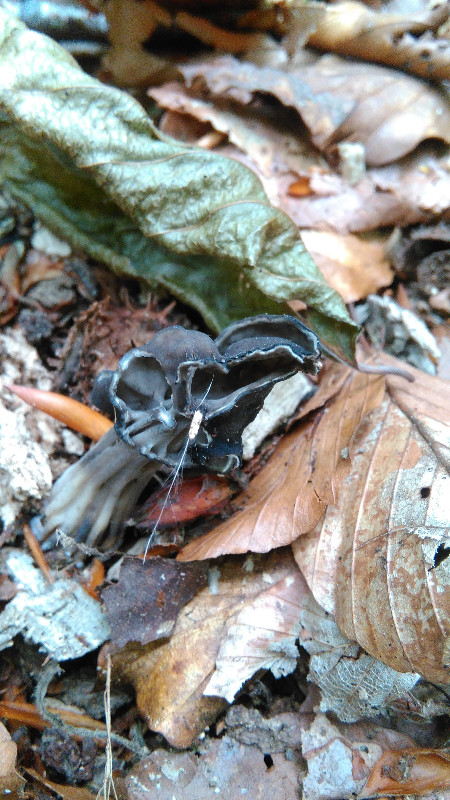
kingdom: Fungi
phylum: Ascomycota
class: Pezizomycetes
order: Pezizales
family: Helvellaceae
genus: Helvella
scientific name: Helvella lacunosa
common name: grubet foldhat
